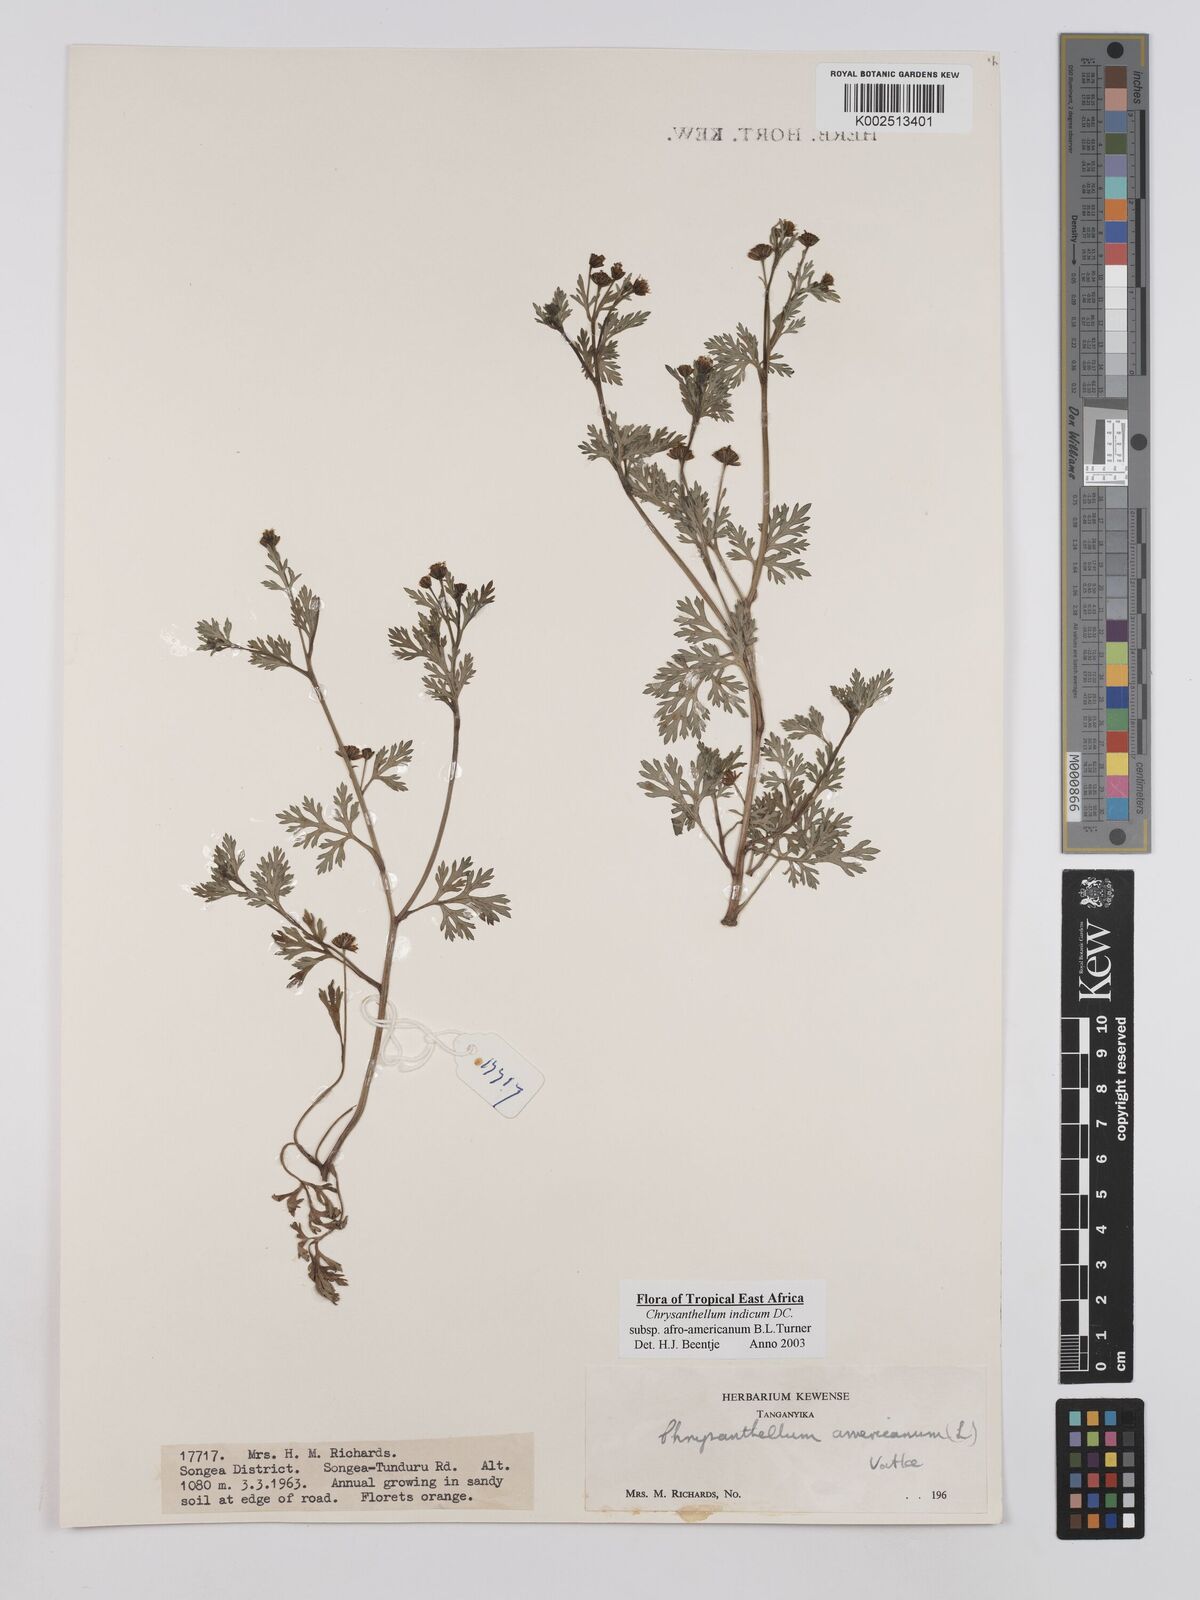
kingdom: Plantae
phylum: Tracheophyta
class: Magnoliopsida
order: Asterales
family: Asteraceae
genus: Chrysanthellum
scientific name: Chrysanthellum indicum
